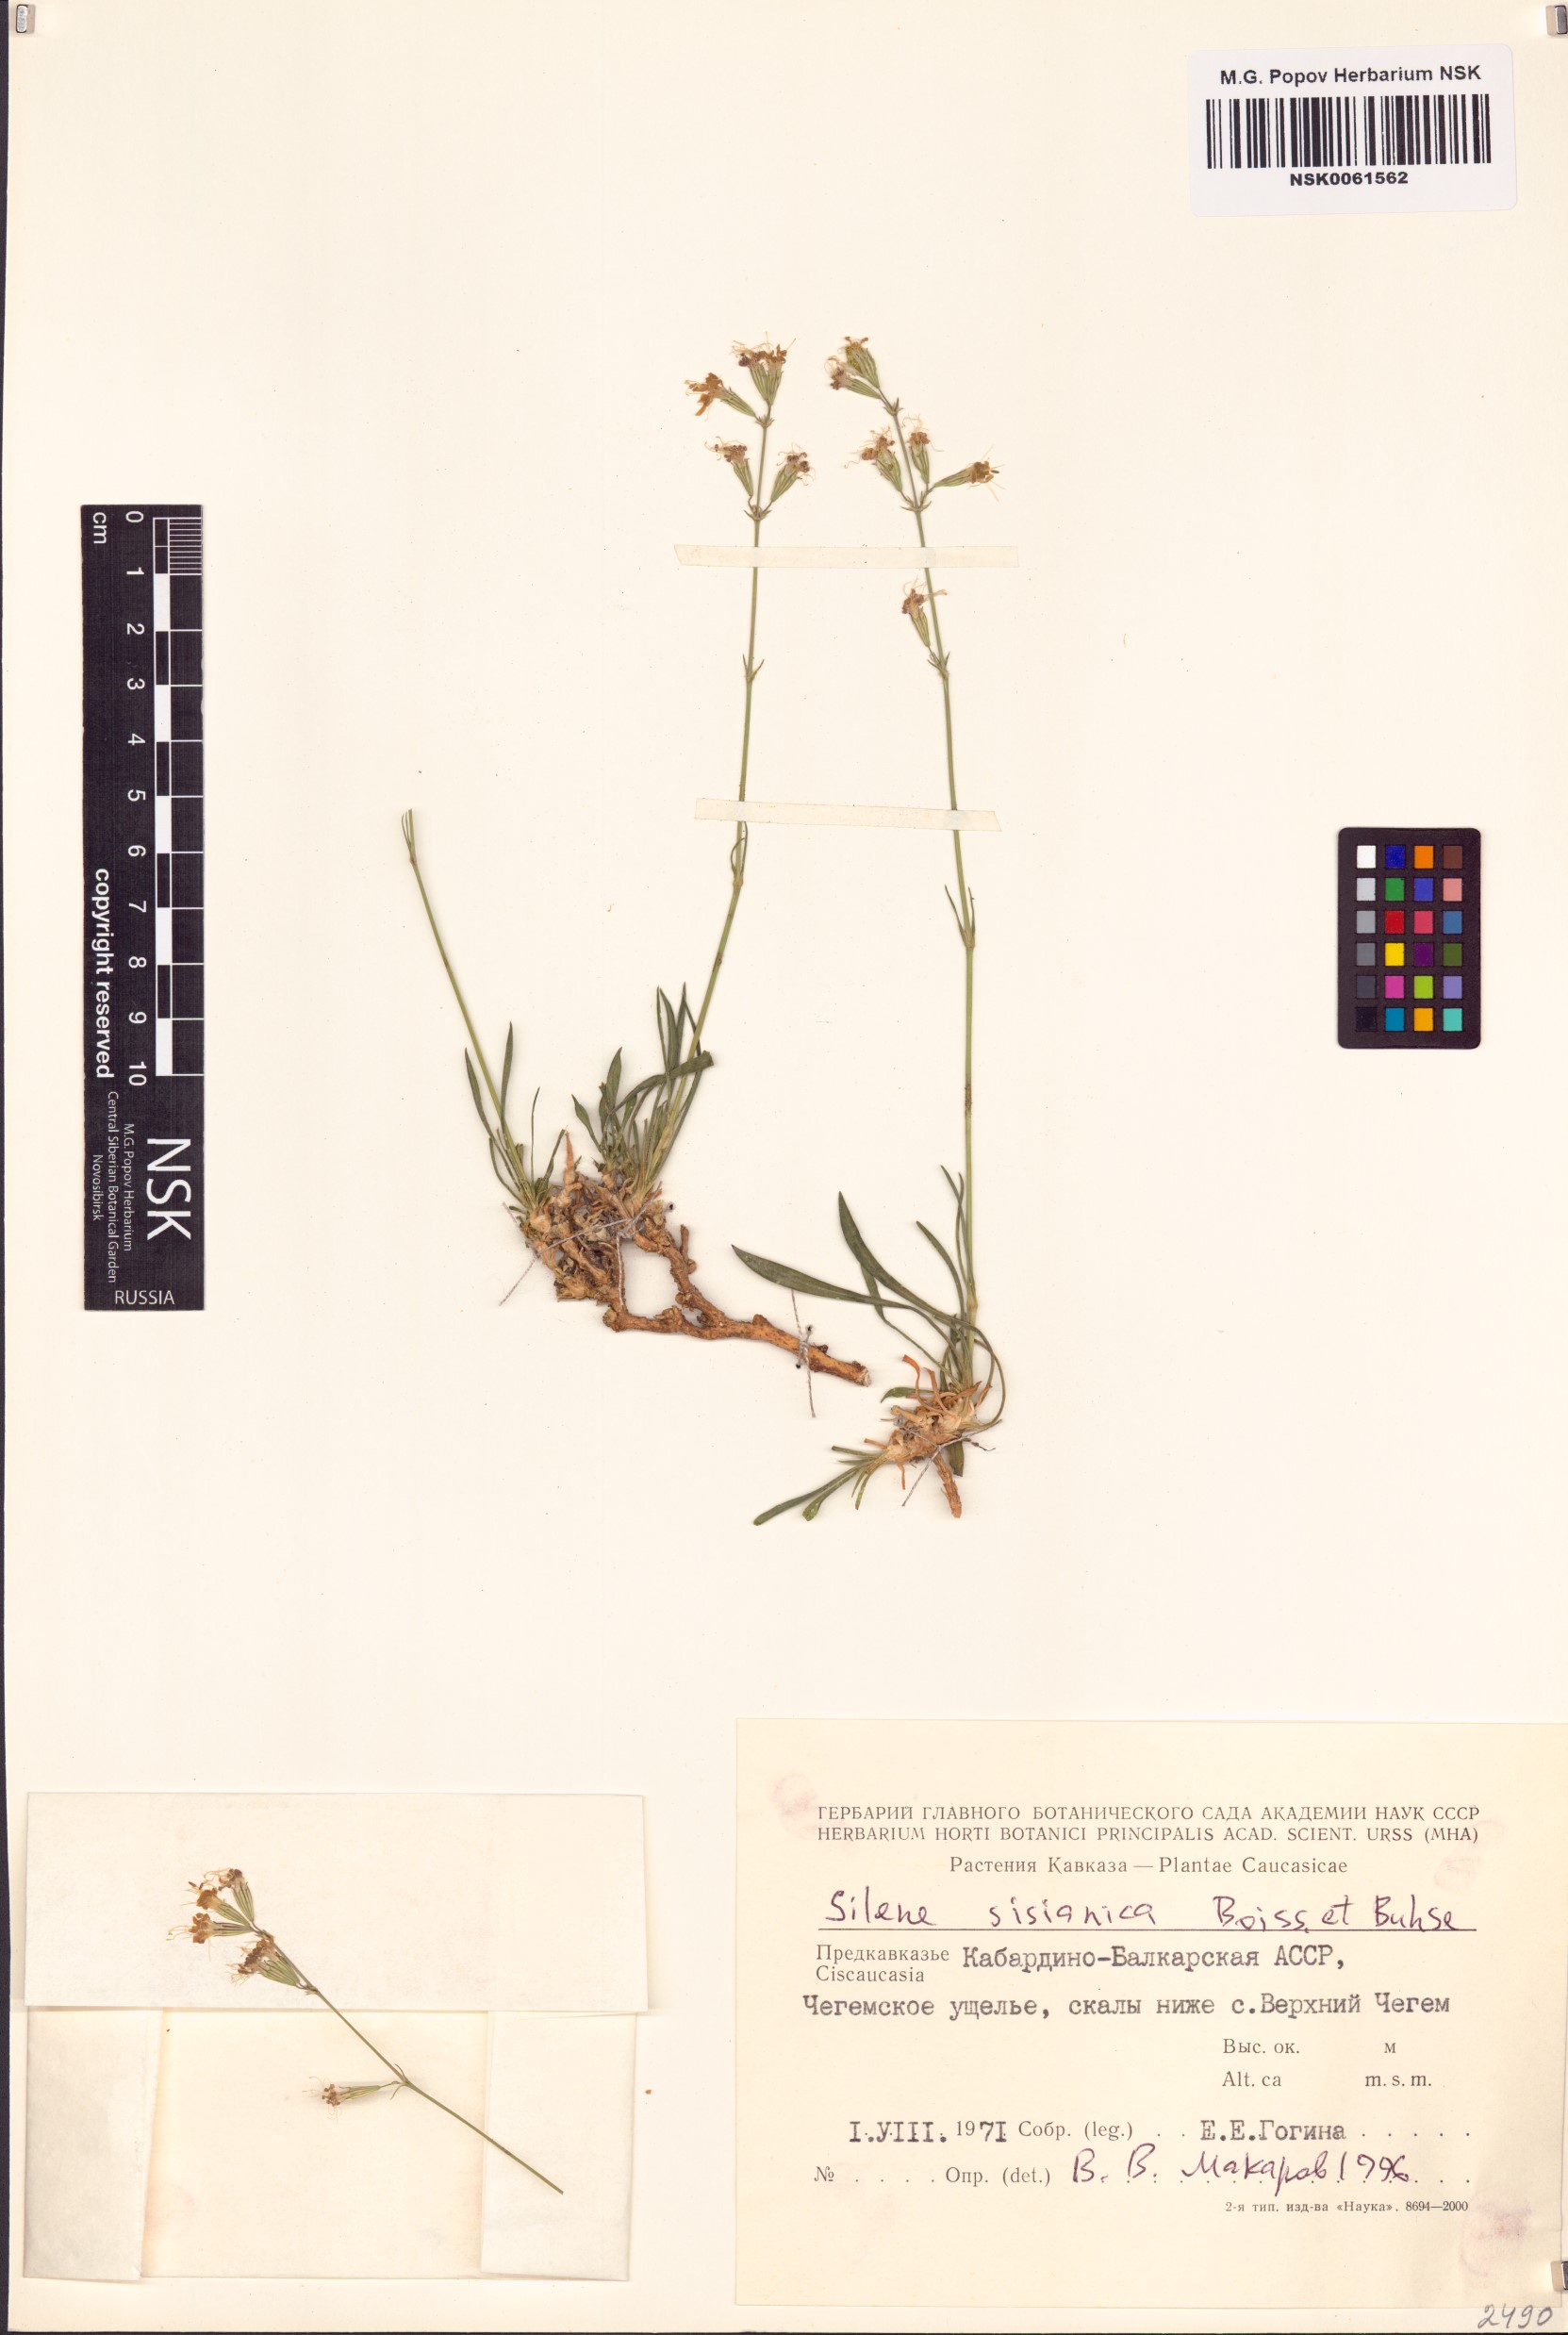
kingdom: Plantae
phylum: Tracheophyta
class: Magnoliopsida
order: Caryophyllales
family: Caryophyllaceae
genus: Silene
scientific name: Silene arguta
